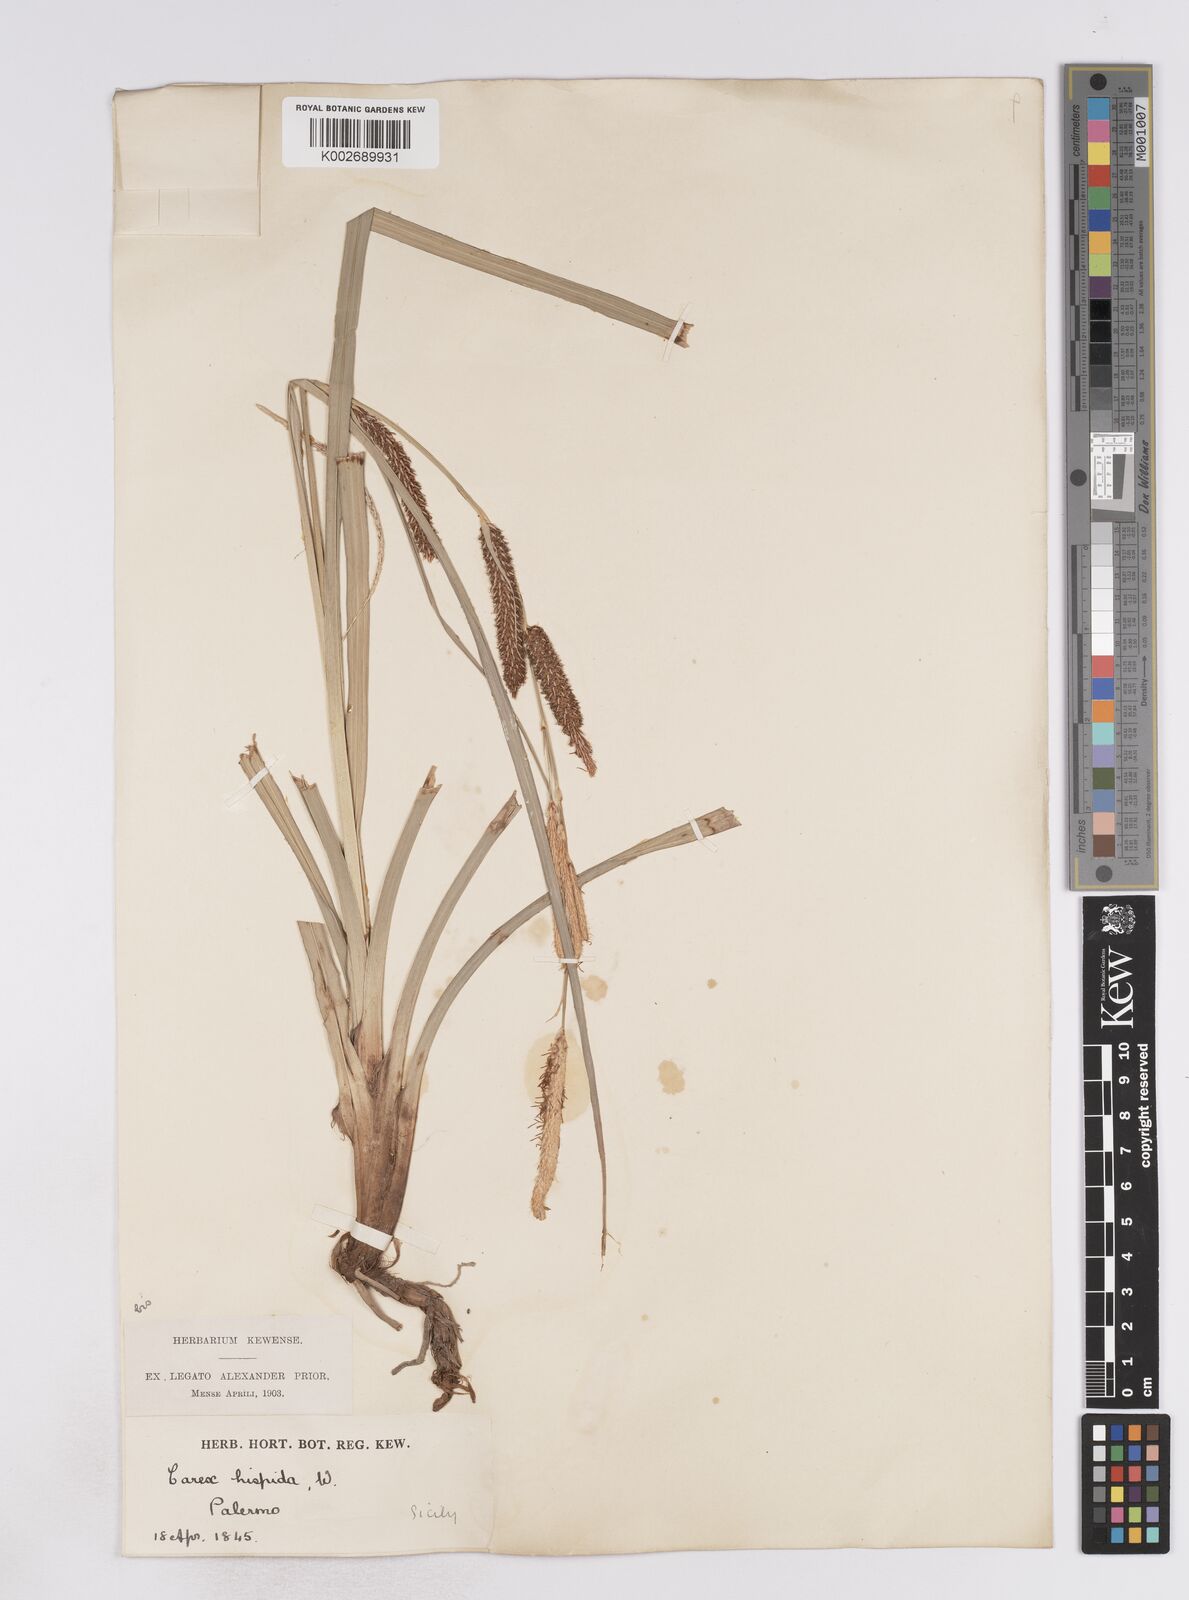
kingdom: Plantae
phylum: Tracheophyta
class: Liliopsida
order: Poales
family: Cyperaceae
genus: Carex
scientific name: Carex hispida
